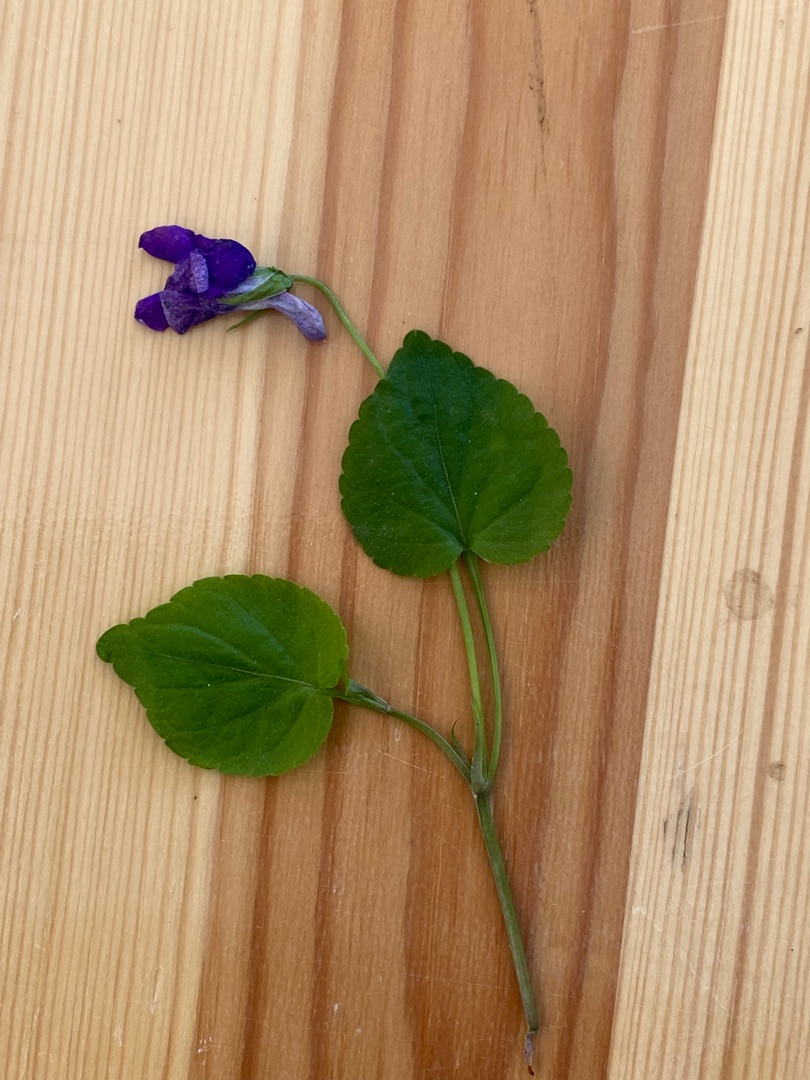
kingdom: Plantae
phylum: Tracheophyta
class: Magnoliopsida
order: Malpighiales
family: Violaceae
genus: Viola
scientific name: Viola reichenbachiana
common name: Skov-viol
